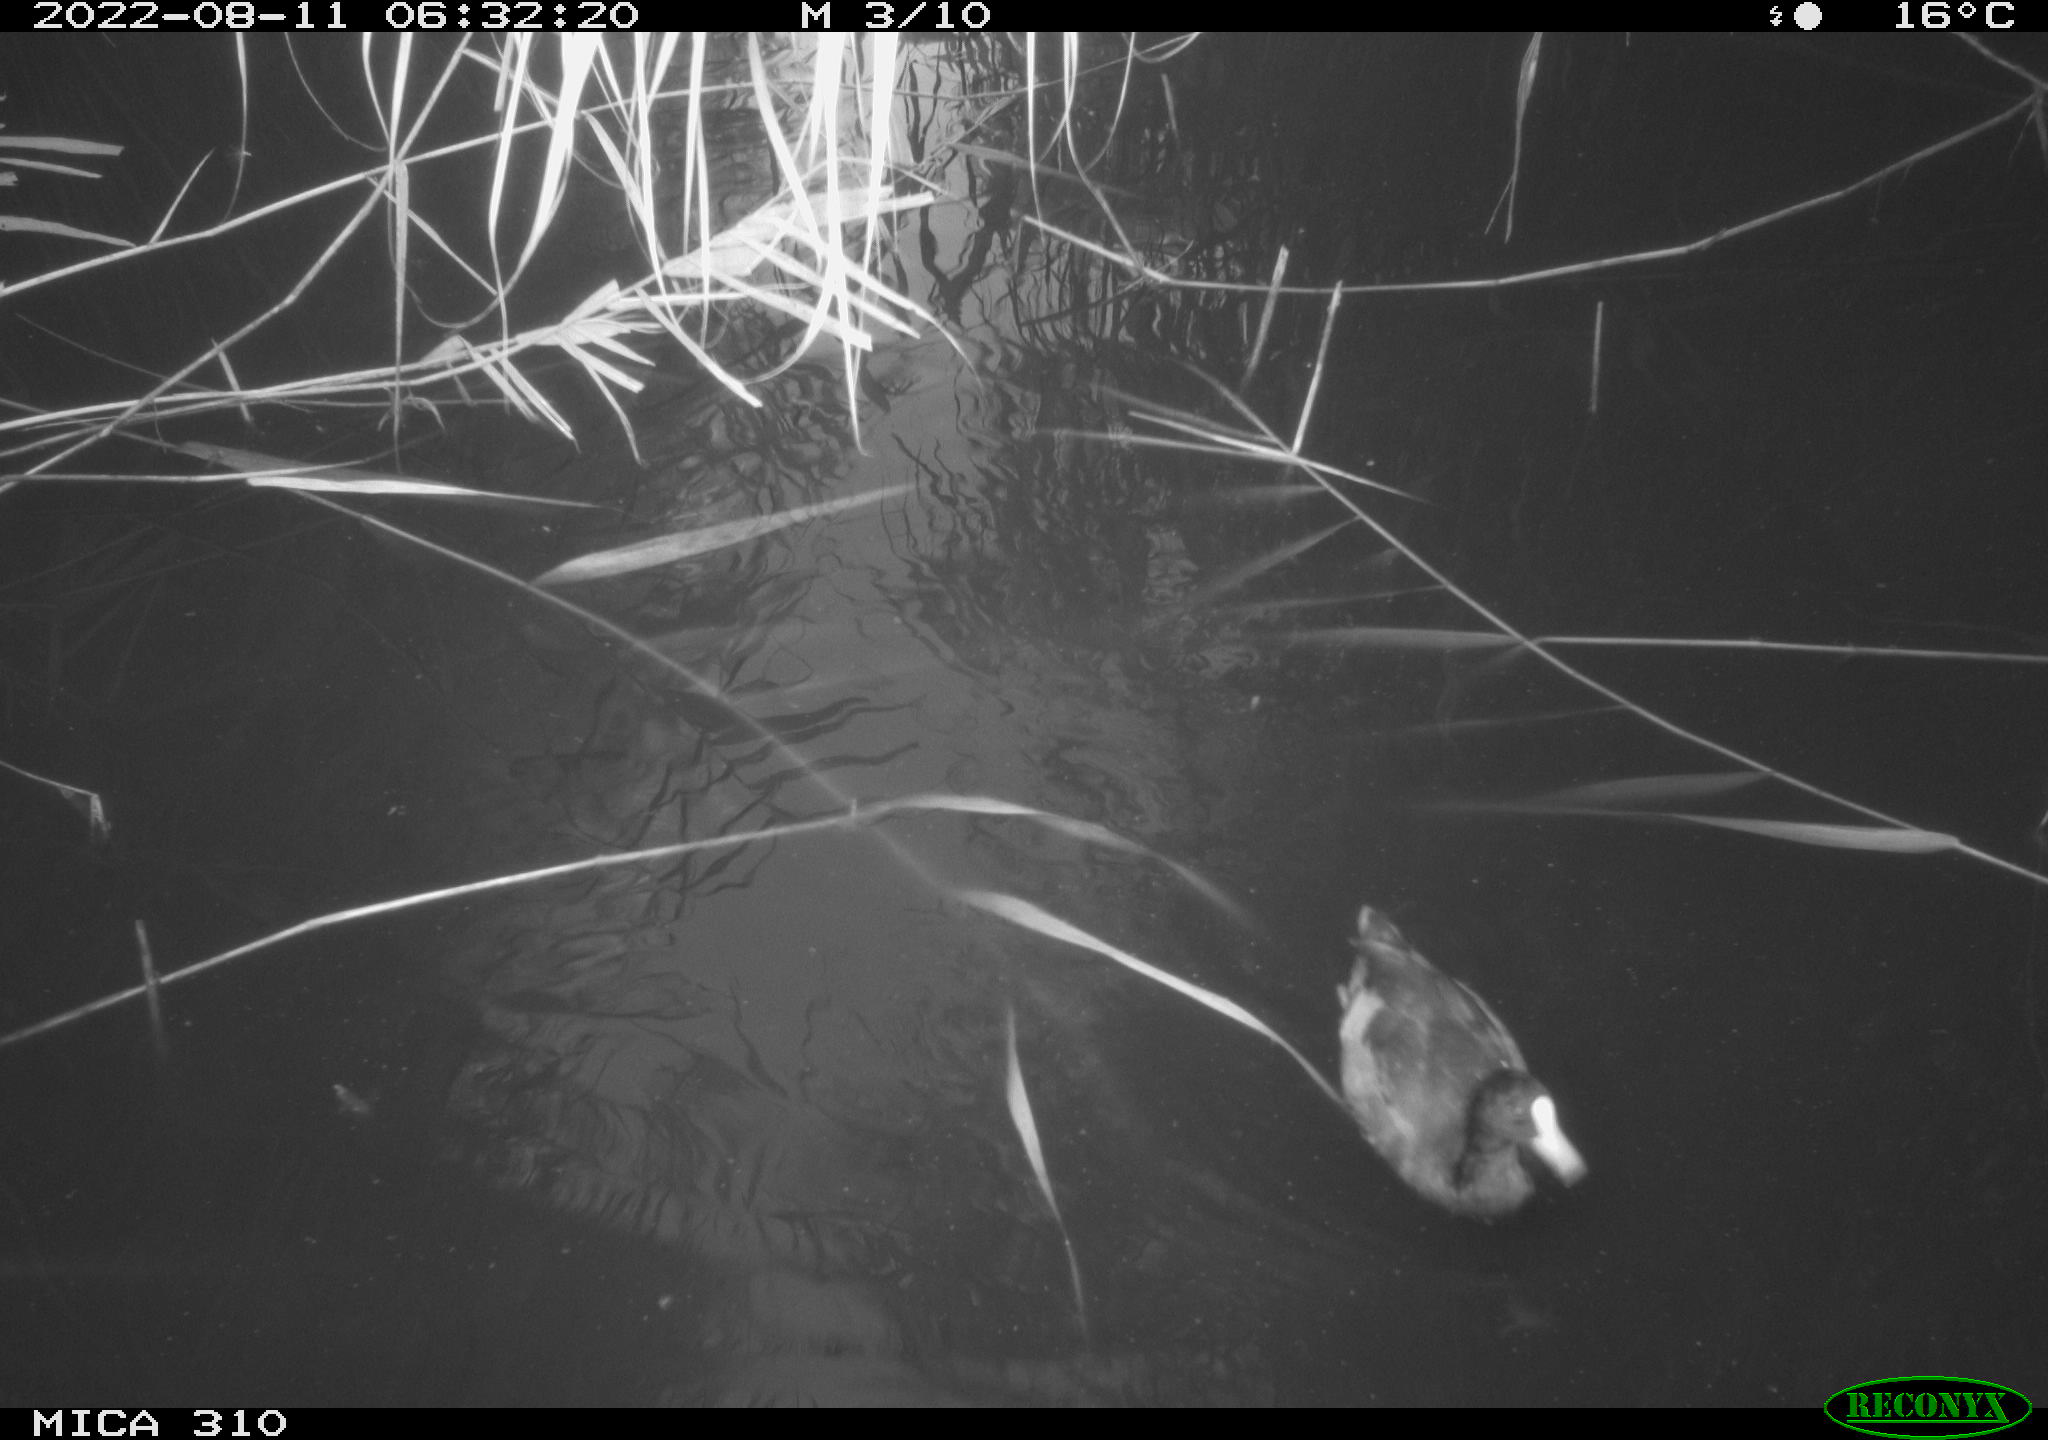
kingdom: Animalia
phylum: Chordata
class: Aves
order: Gruiformes
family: Rallidae
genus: Fulica
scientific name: Fulica atra
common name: Eurasian coot
